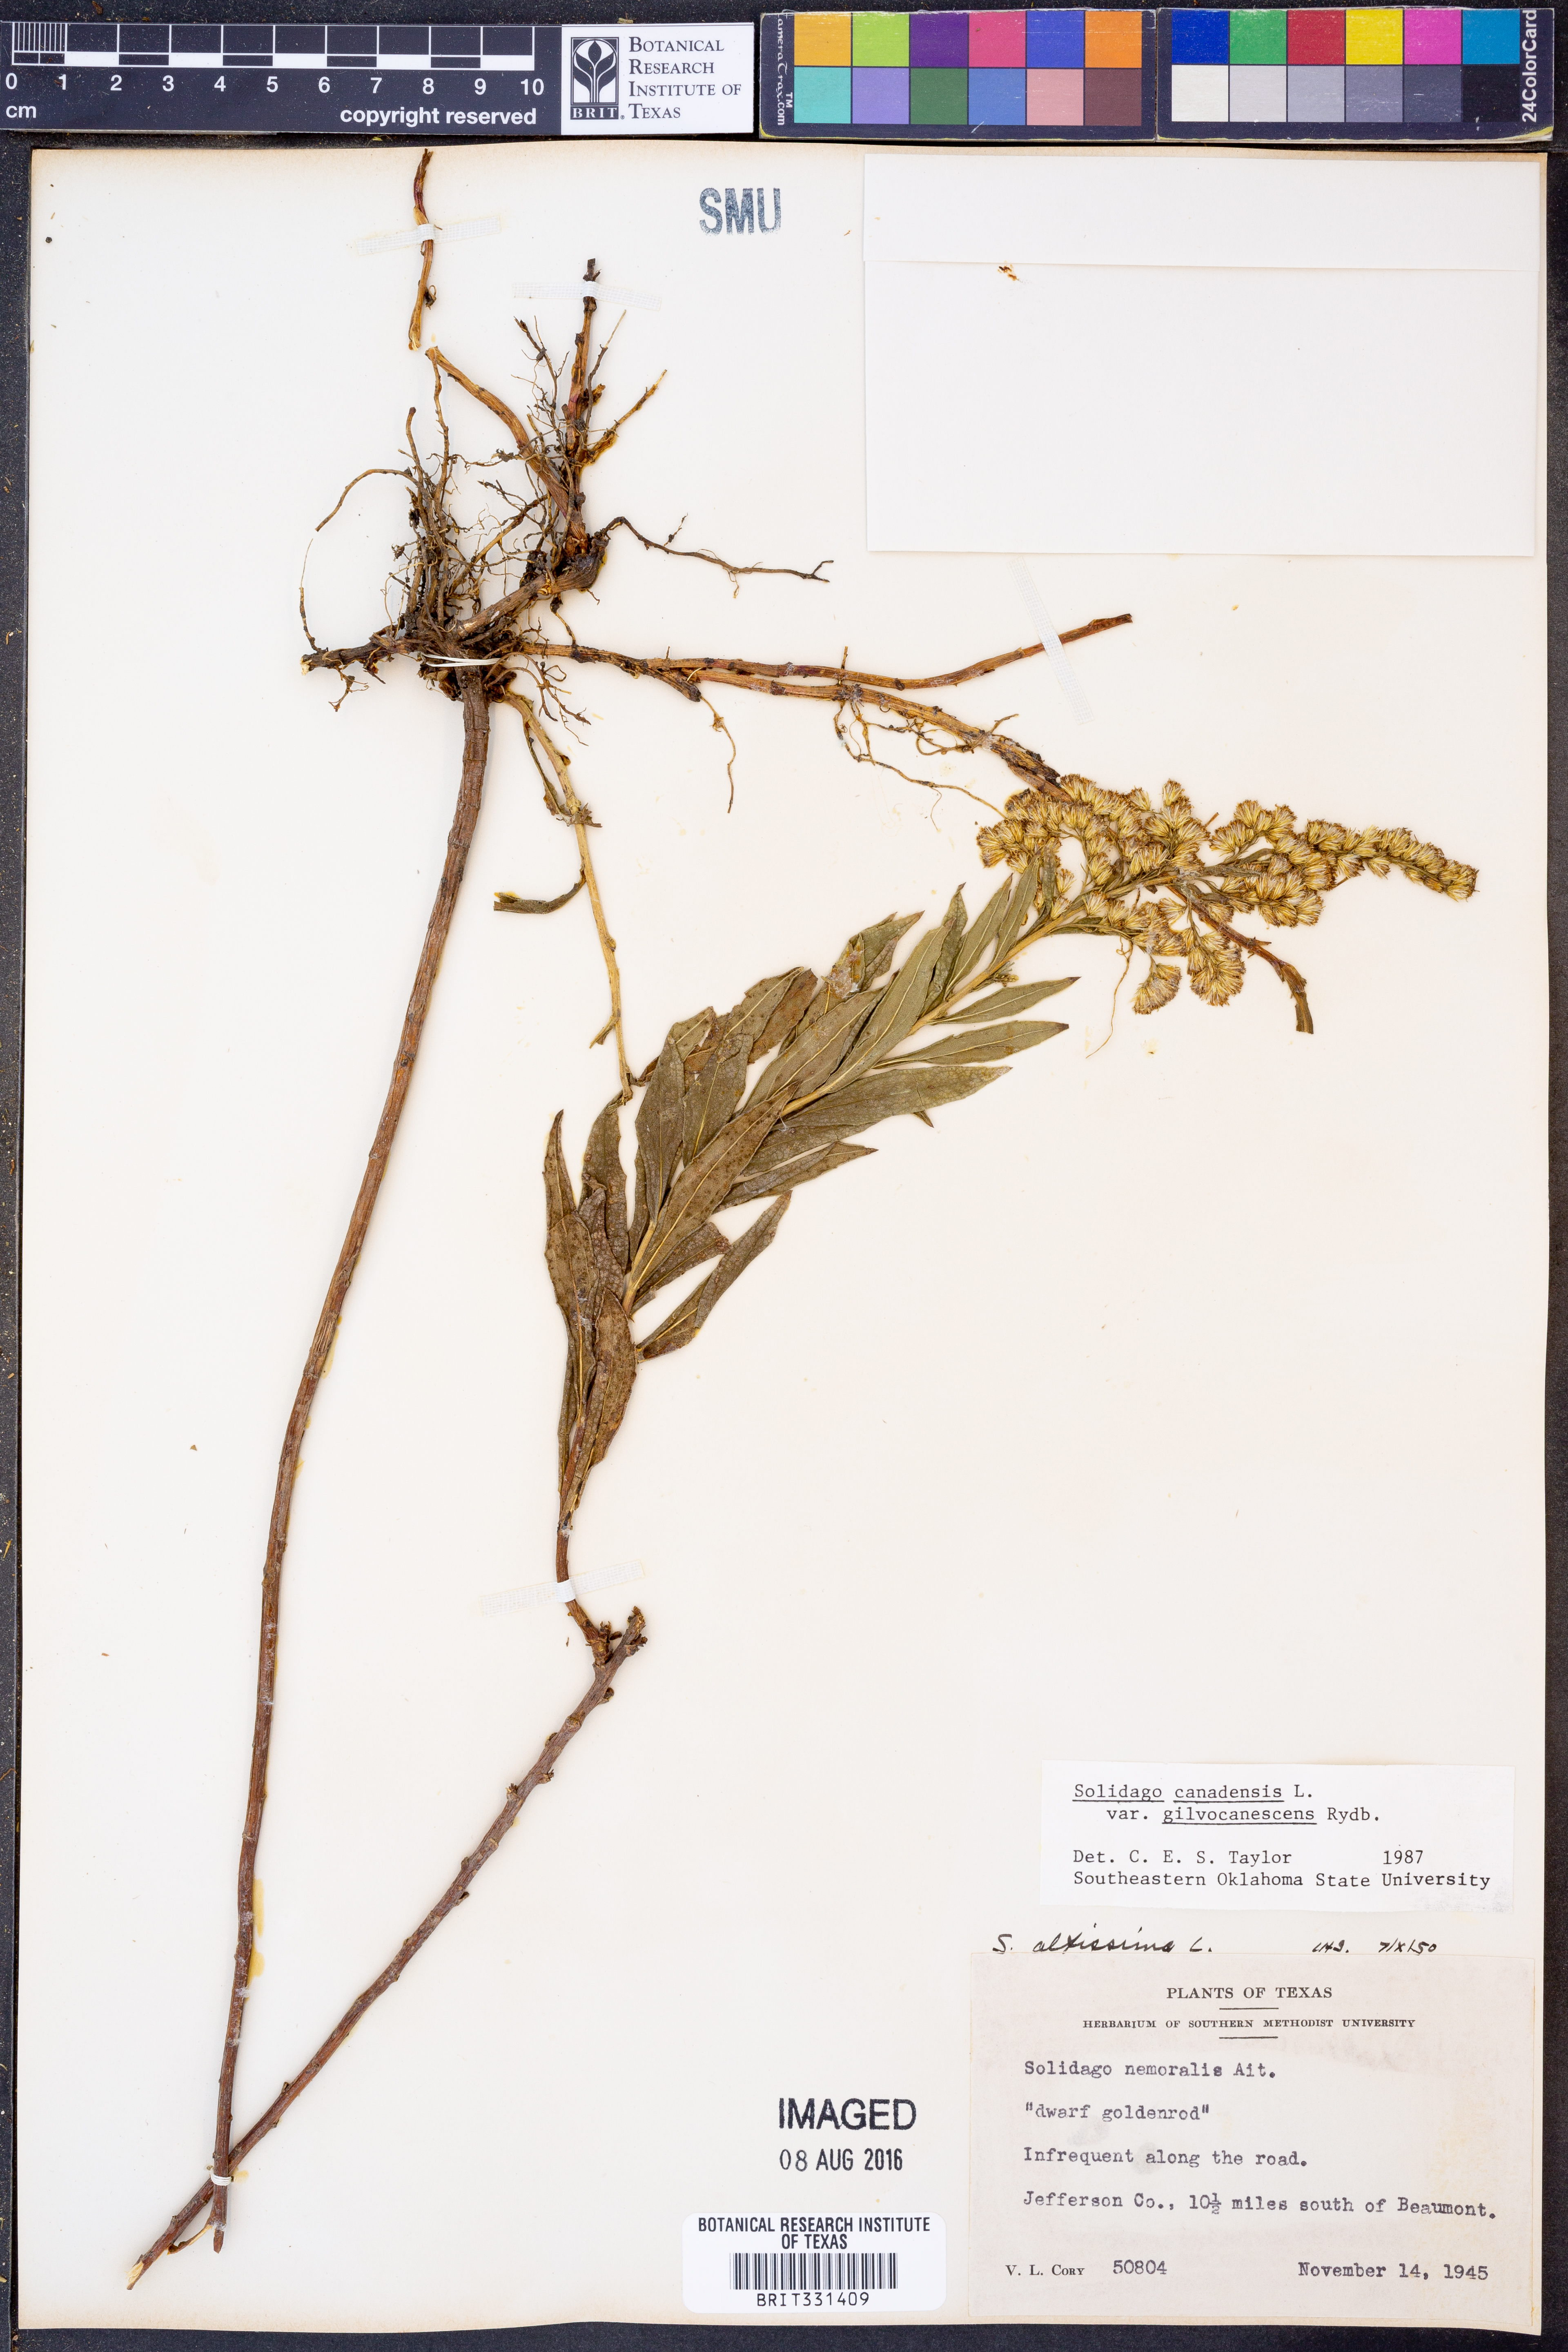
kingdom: Plantae
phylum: Tracheophyta
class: Magnoliopsida
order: Asterales
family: Asteraceae
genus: Solidago
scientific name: Solidago altissima
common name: Late goldenrod
